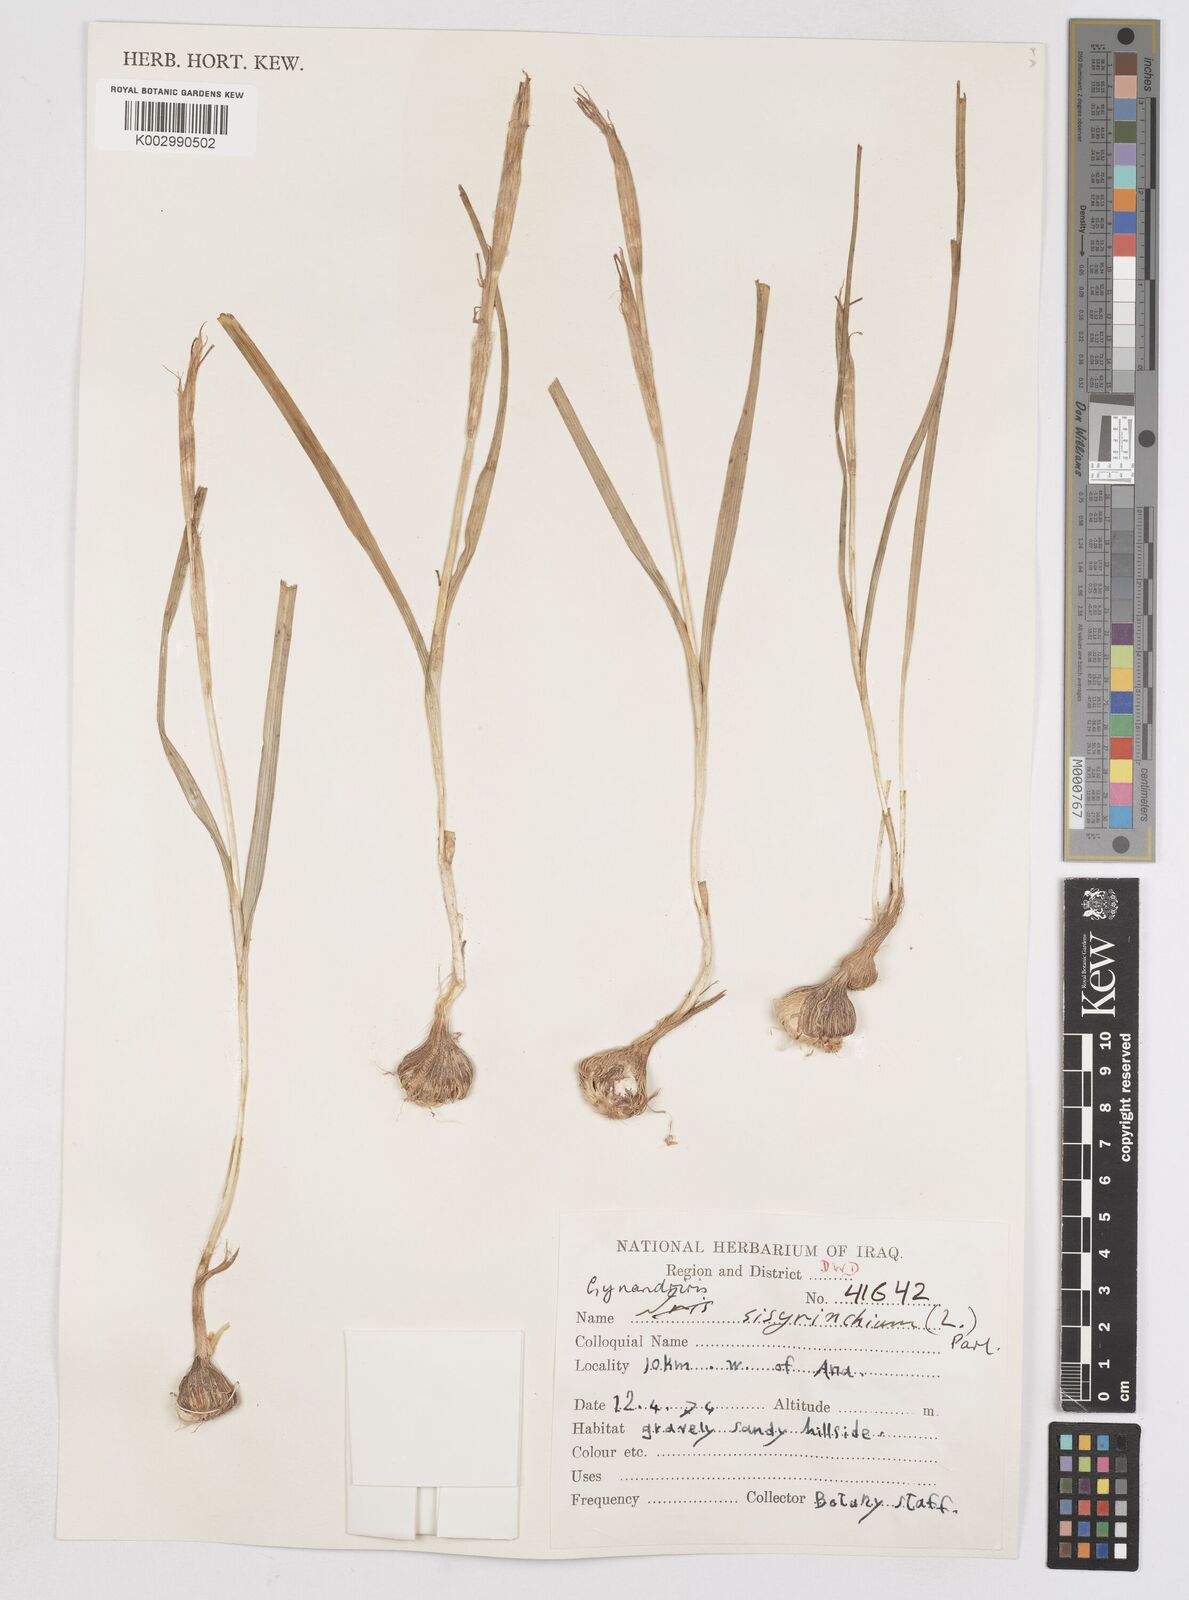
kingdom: Plantae
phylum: Tracheophyta
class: Liliopsida
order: Asparagales
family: Iridaceae
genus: Moraea
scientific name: Moraea sisyrinchium
